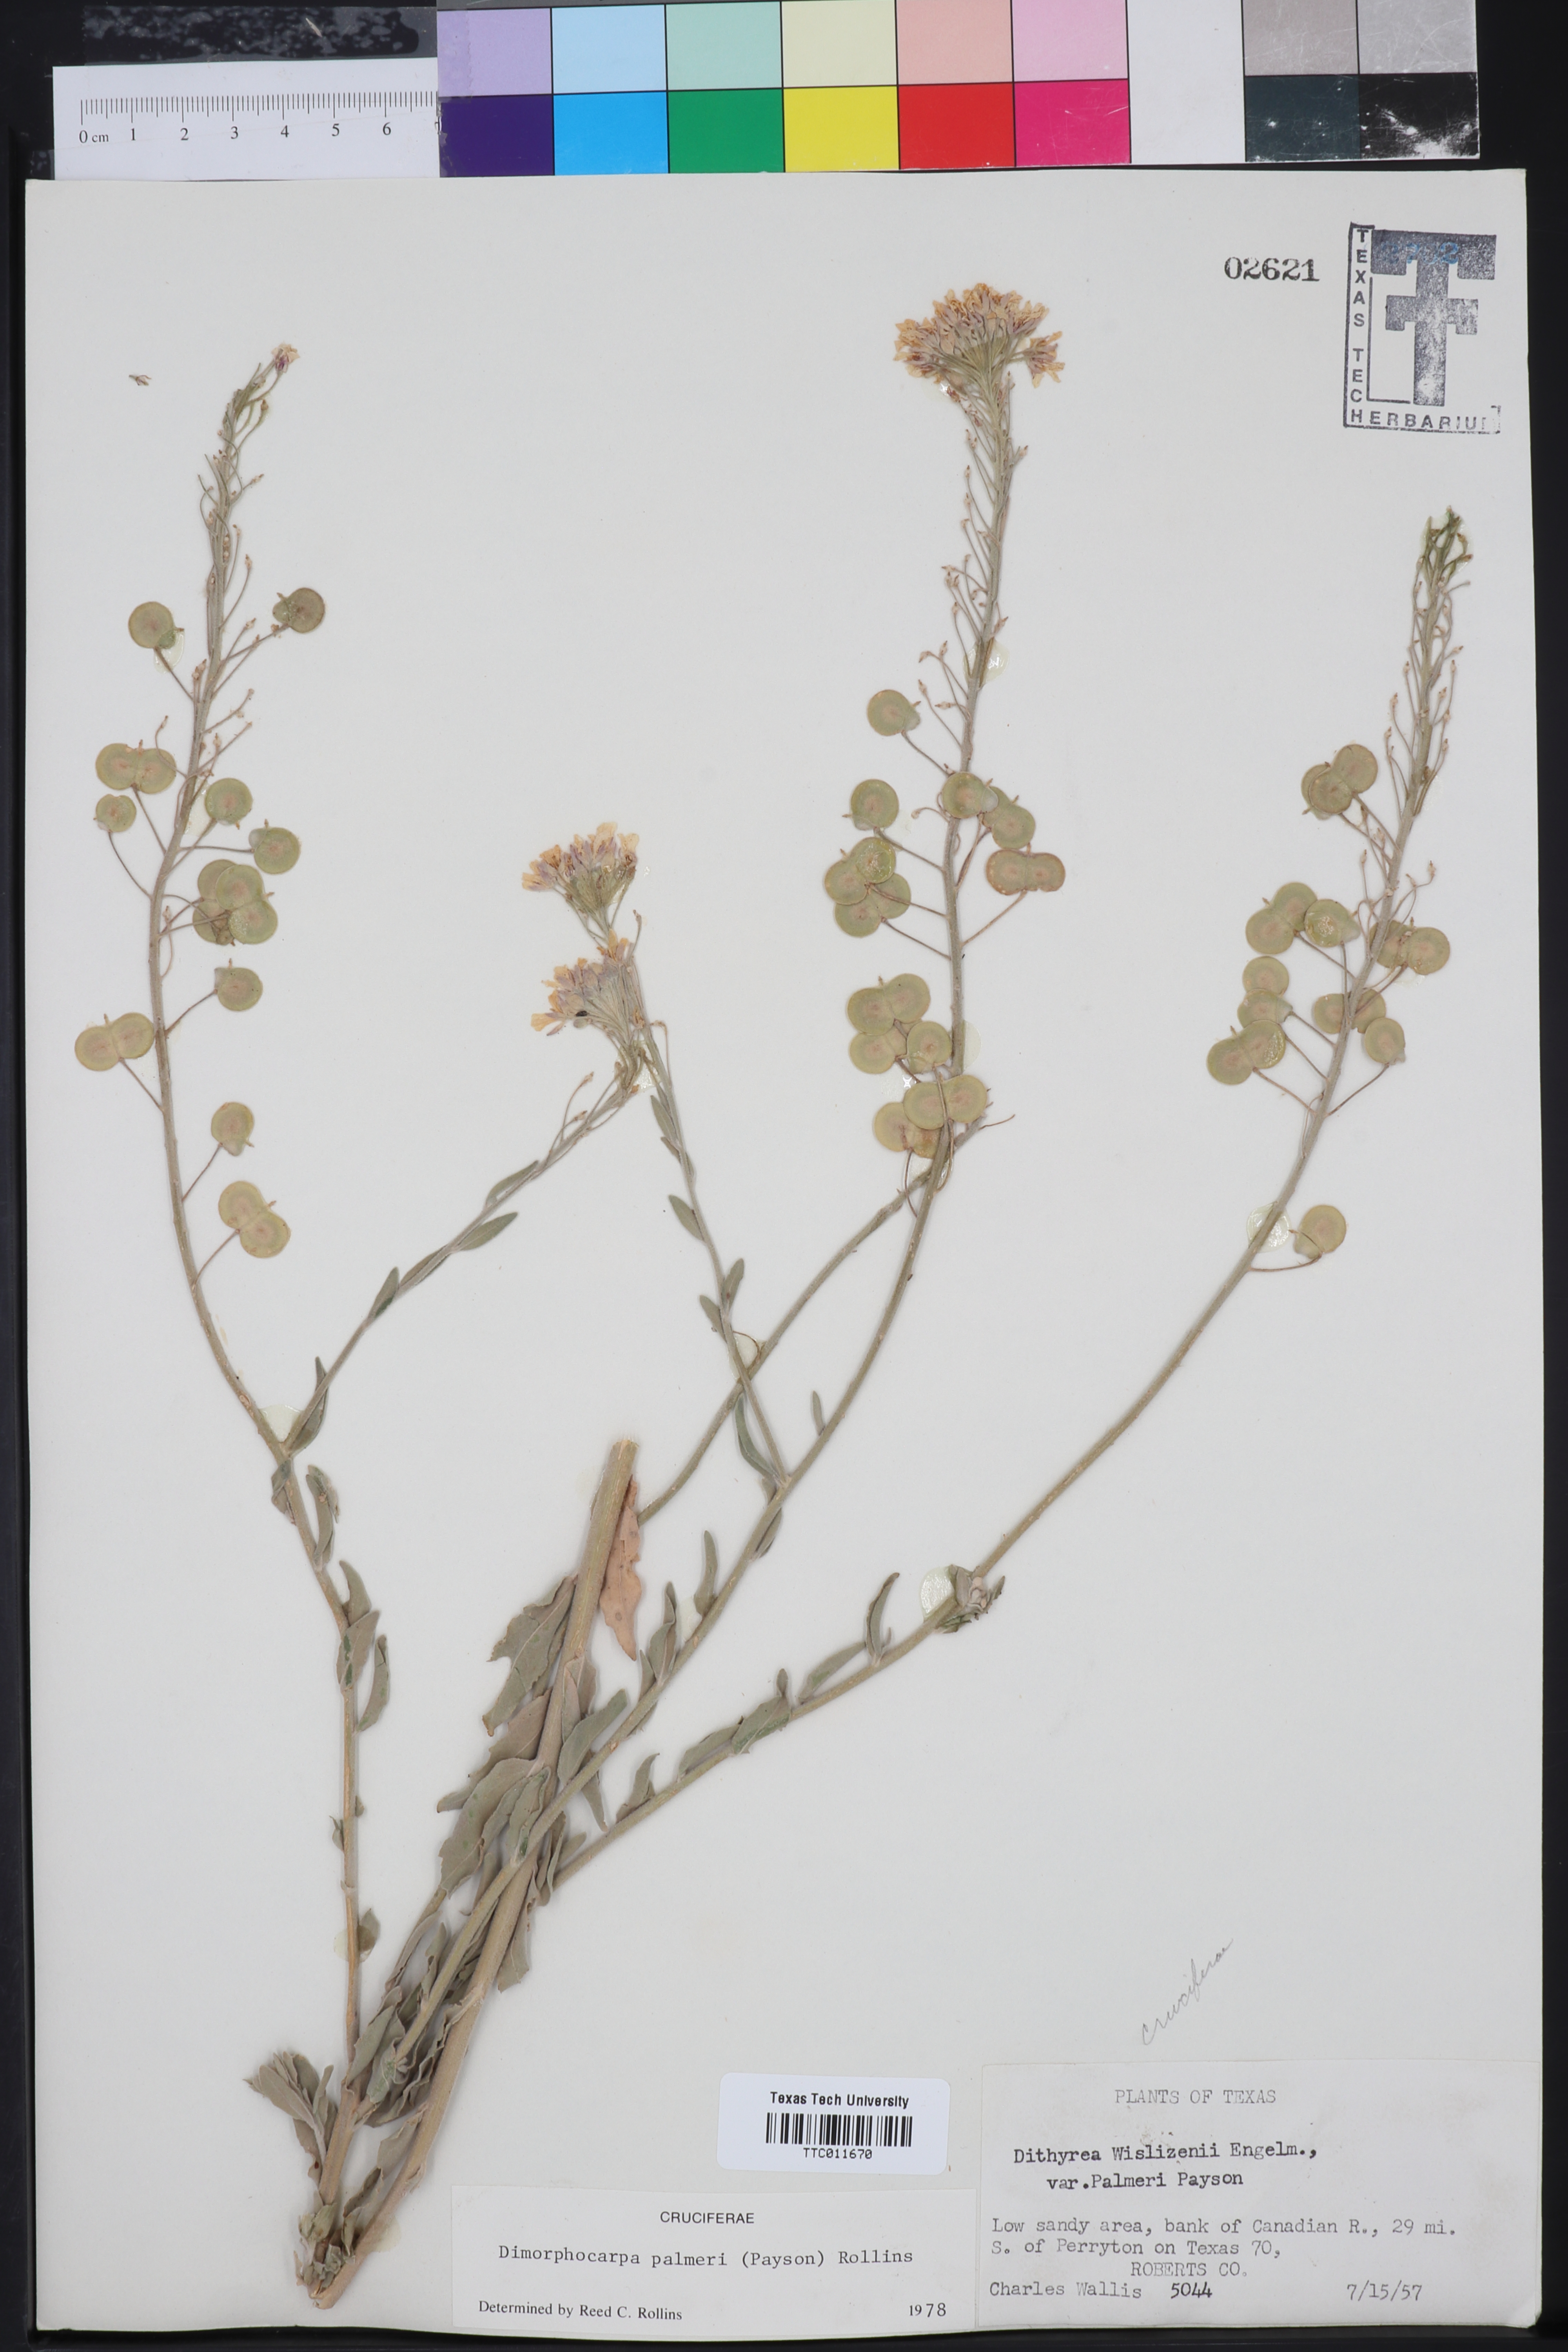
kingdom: Plantae
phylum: Tracheophyta
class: Magnoliopsida
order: Brassicales
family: Brassicaceae
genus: Dimorphocarpa
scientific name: Dimorphocarpa candicans
